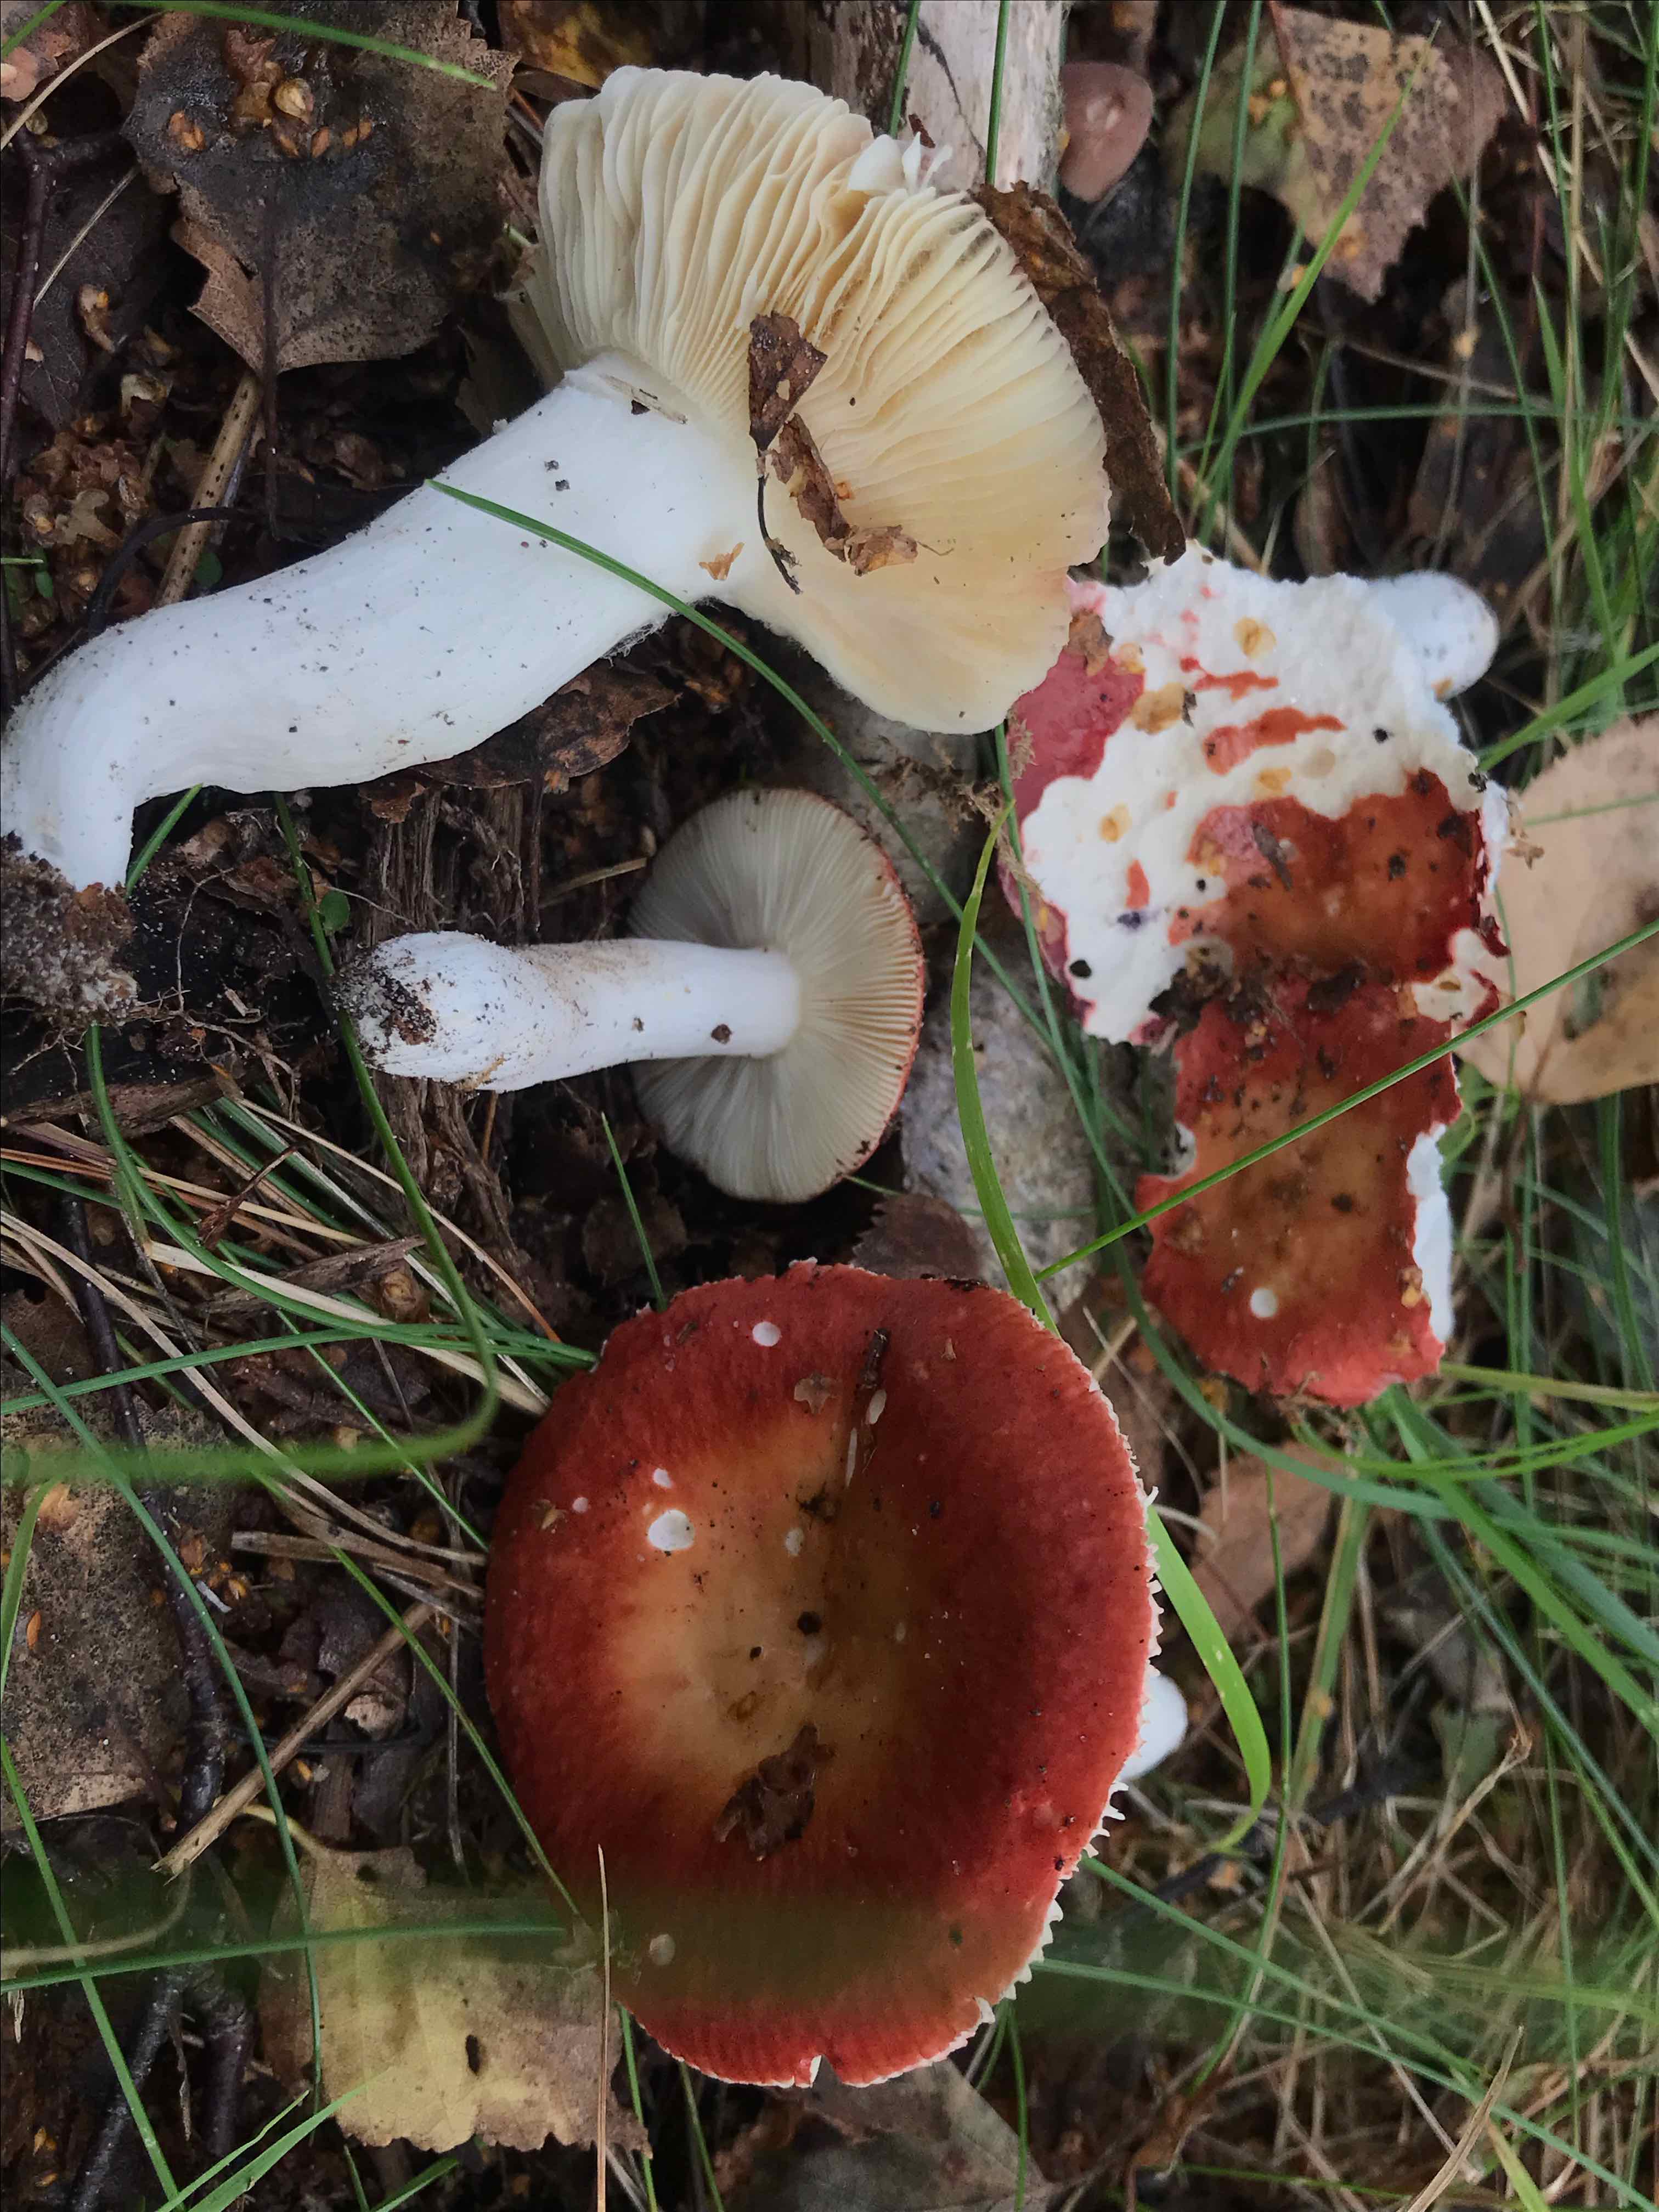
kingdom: Fungi
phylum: Basidiomycota
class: Agaricomycetes
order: Russulales
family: Russulaceae
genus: Russula
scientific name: Russula velenovskyi
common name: orangerød skørhat
